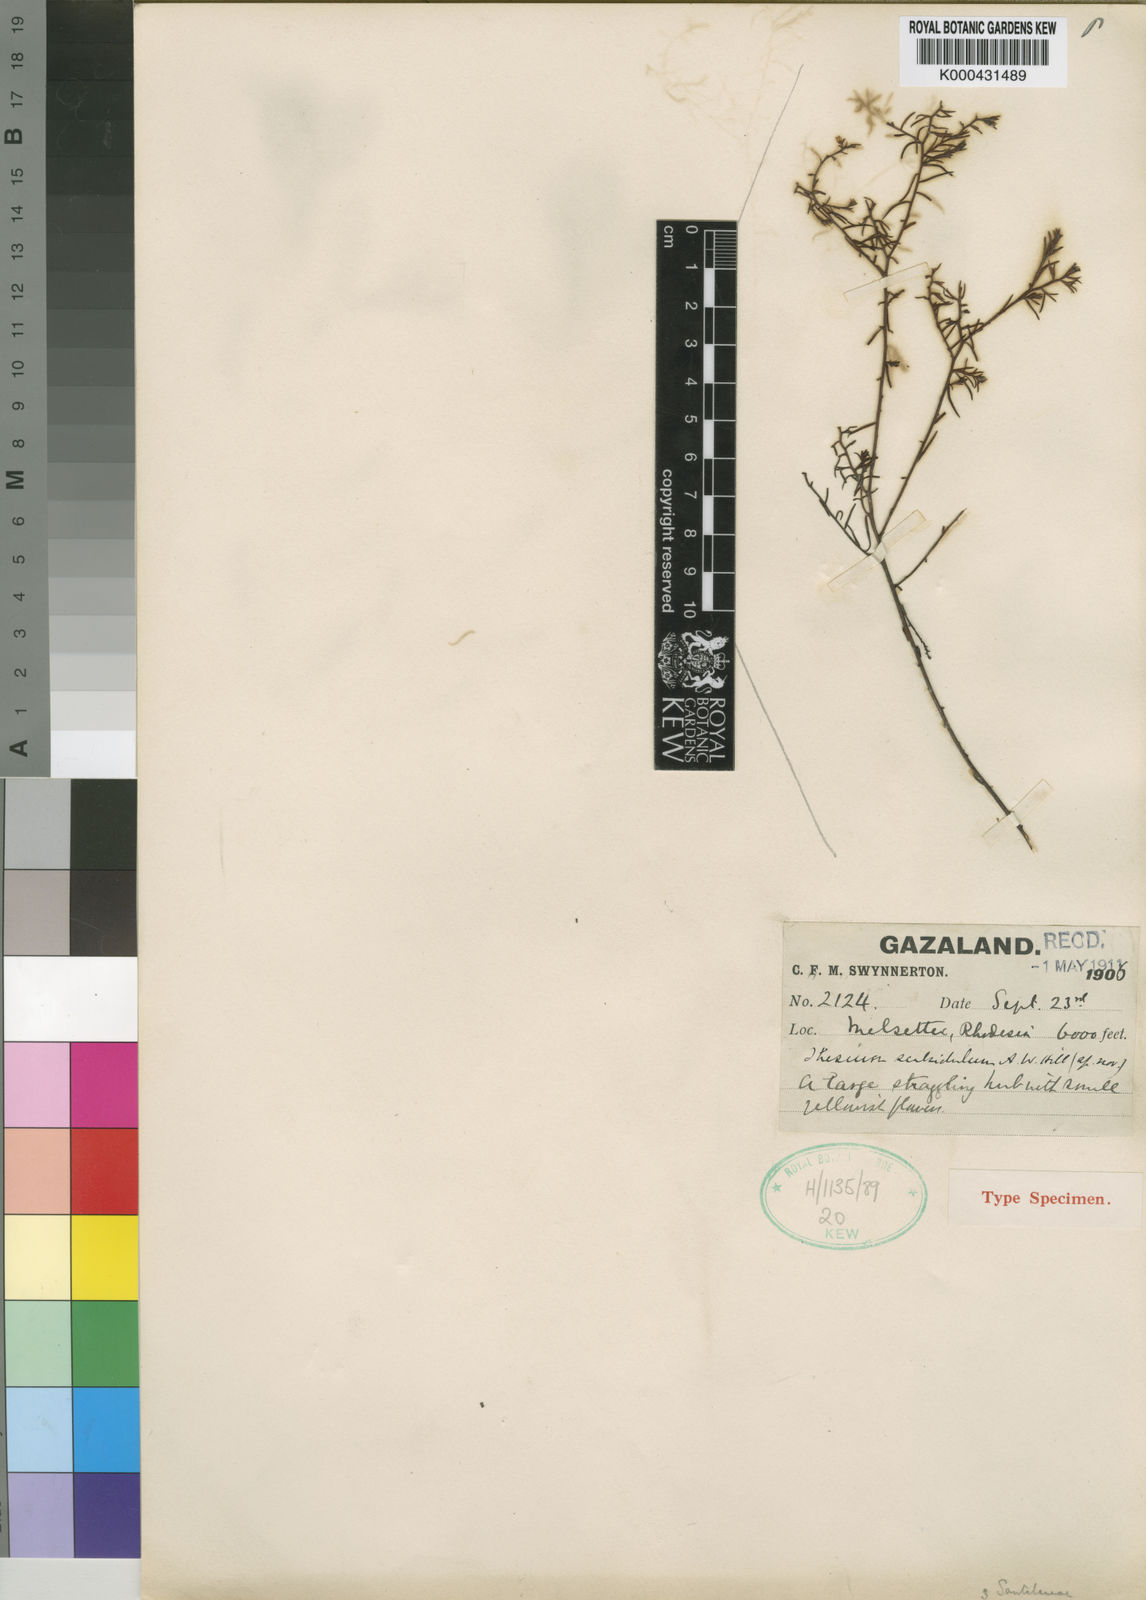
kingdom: Plantae
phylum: Tracheophyta
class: Magnoliopsida
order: Santalales
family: Thesiaceae
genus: Thesium
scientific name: Thesium nigricans
